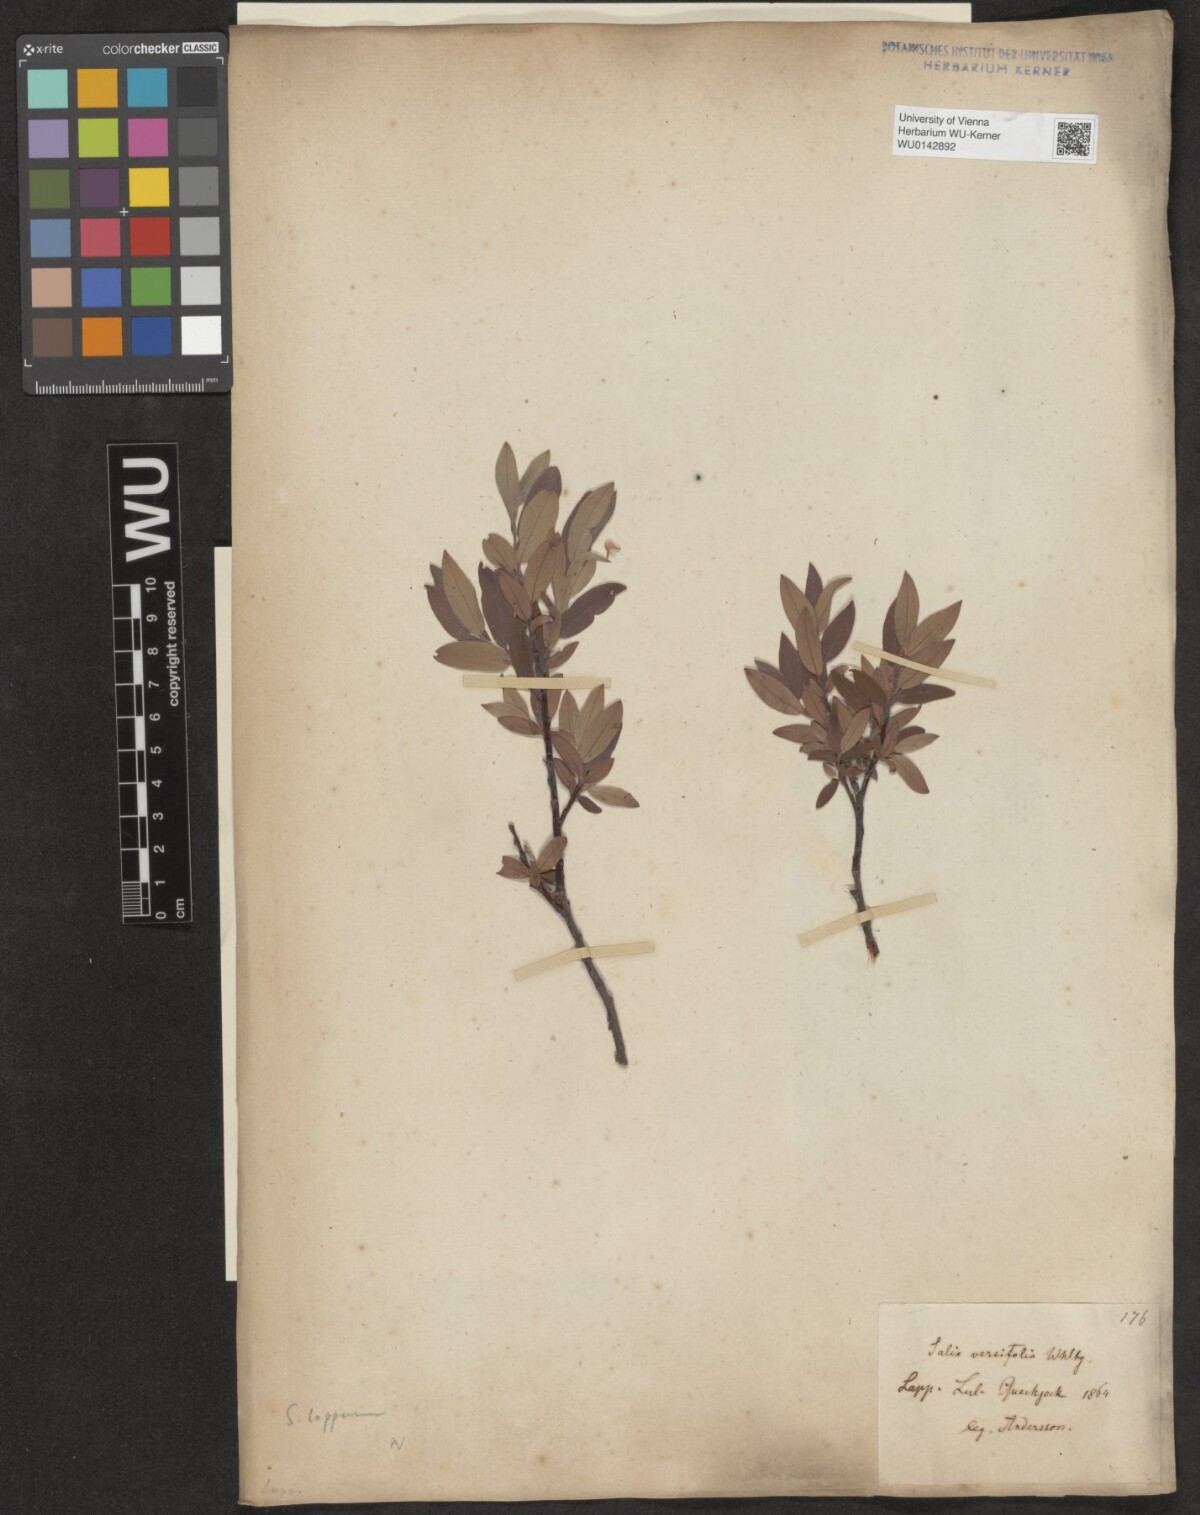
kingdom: Plantae
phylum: Tracheophyta
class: Magnoliopsida
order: Malpighiales
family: Salicaceae
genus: Salix
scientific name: Salix lapponum
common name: Downy willow
